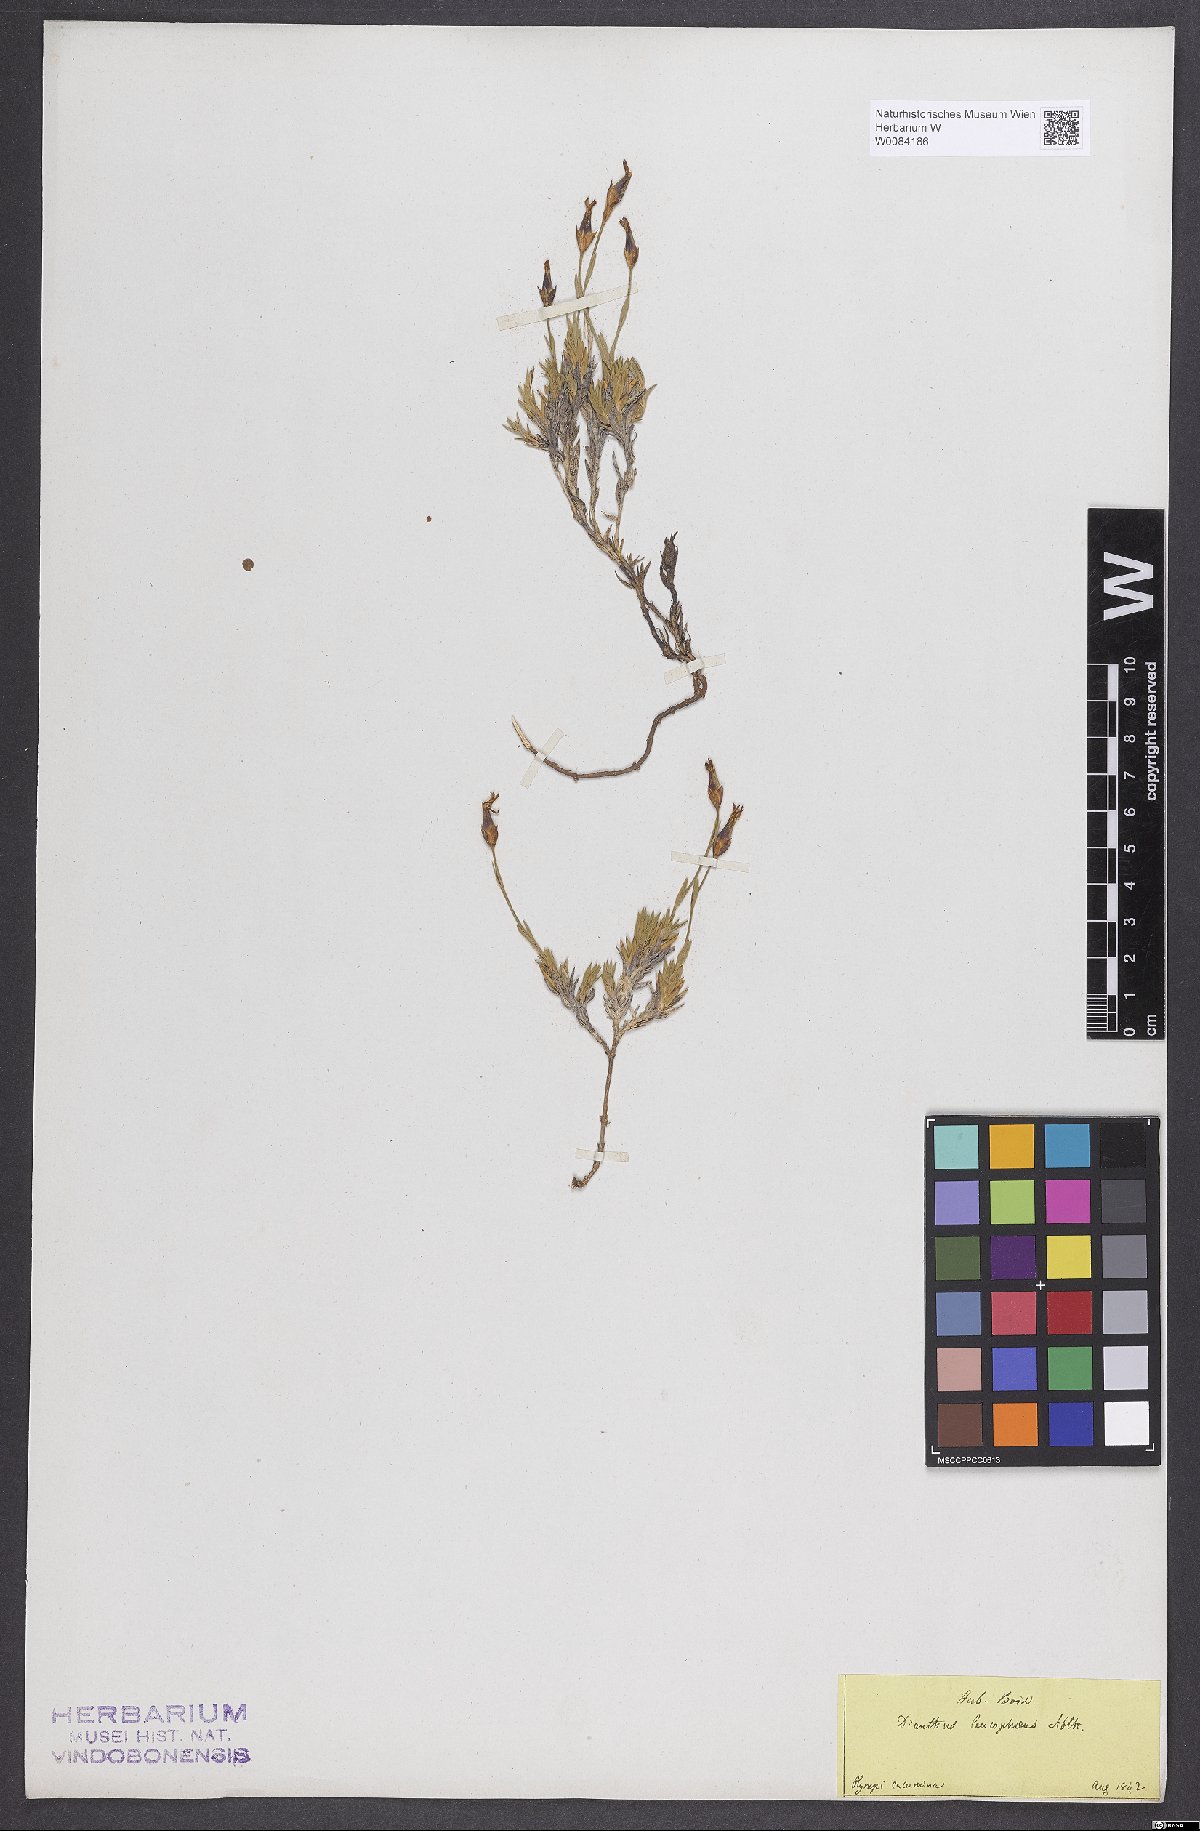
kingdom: Plantae
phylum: Tracheophyta
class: Magnoliopsida
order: Caryophyllales
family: Caryophyllaceae
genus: Dianthus
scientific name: Dianthus leucophaeus
